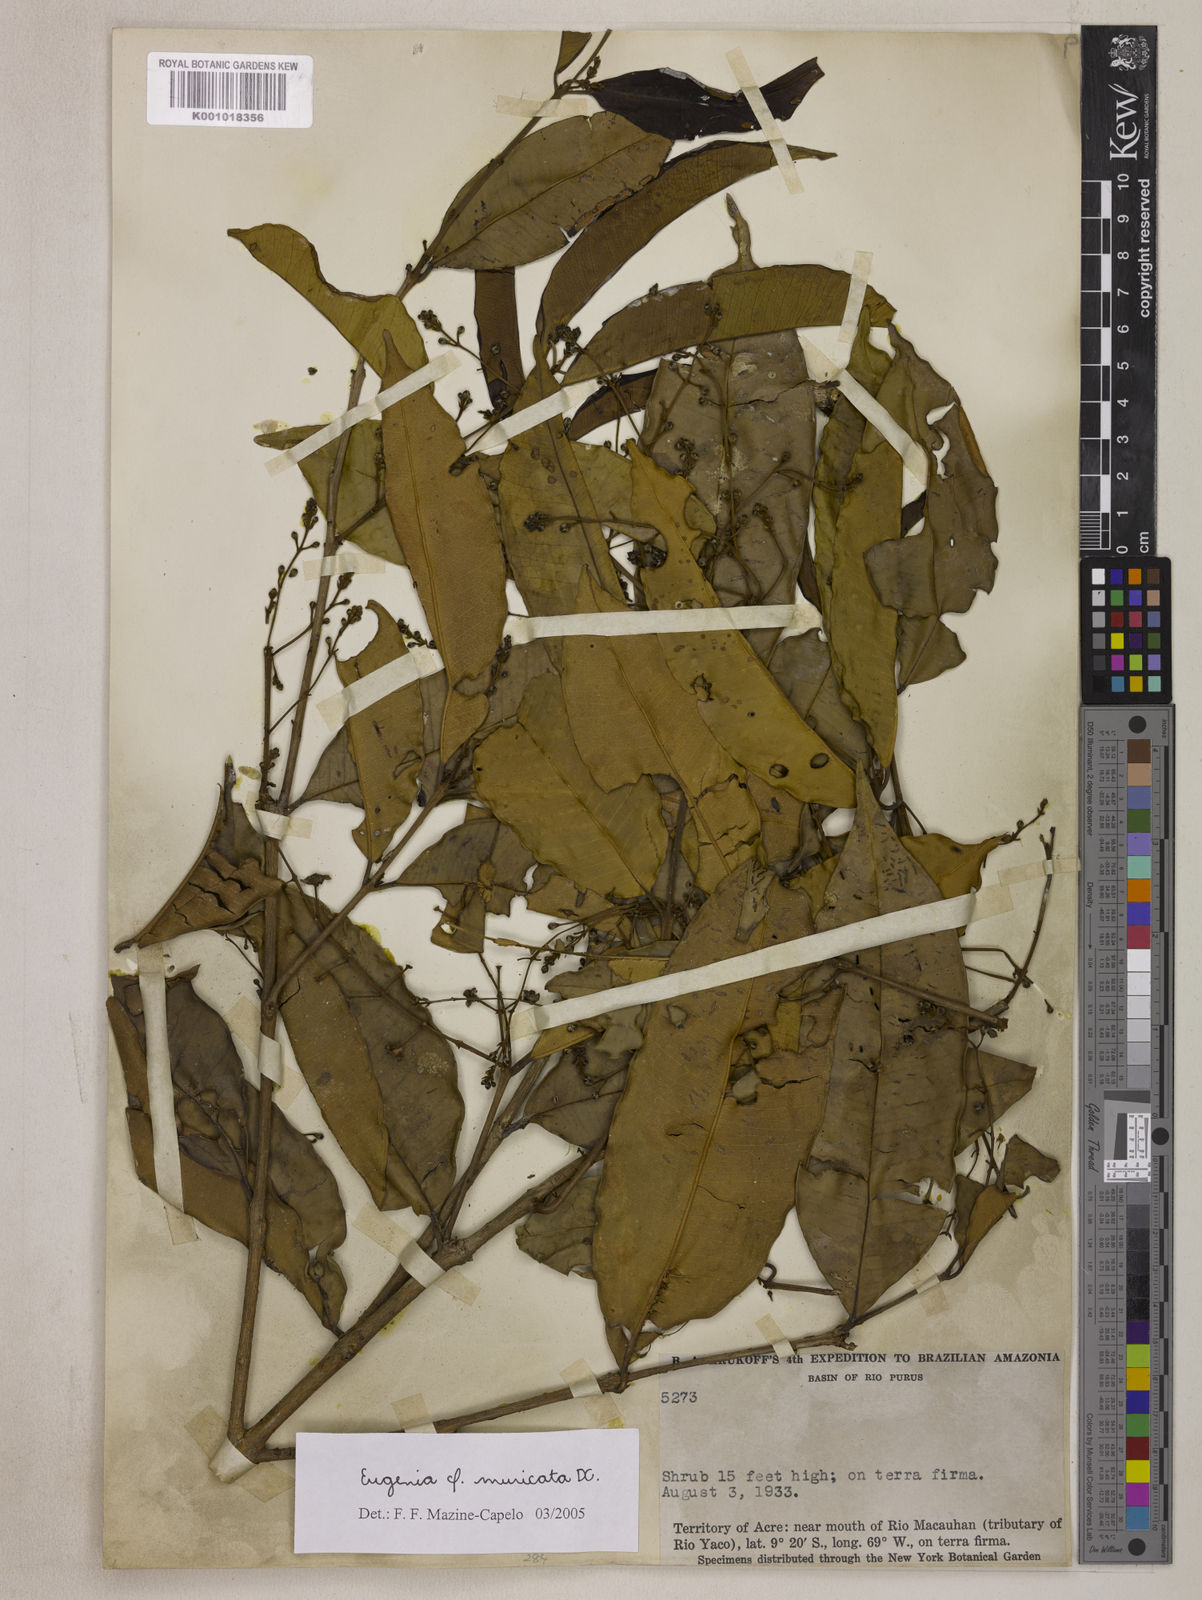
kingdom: Plantae
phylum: Tracheophyta
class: Magnoliopsida
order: Myrtales
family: Myrtaceae
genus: Eugenia
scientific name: Eugenia muricata
